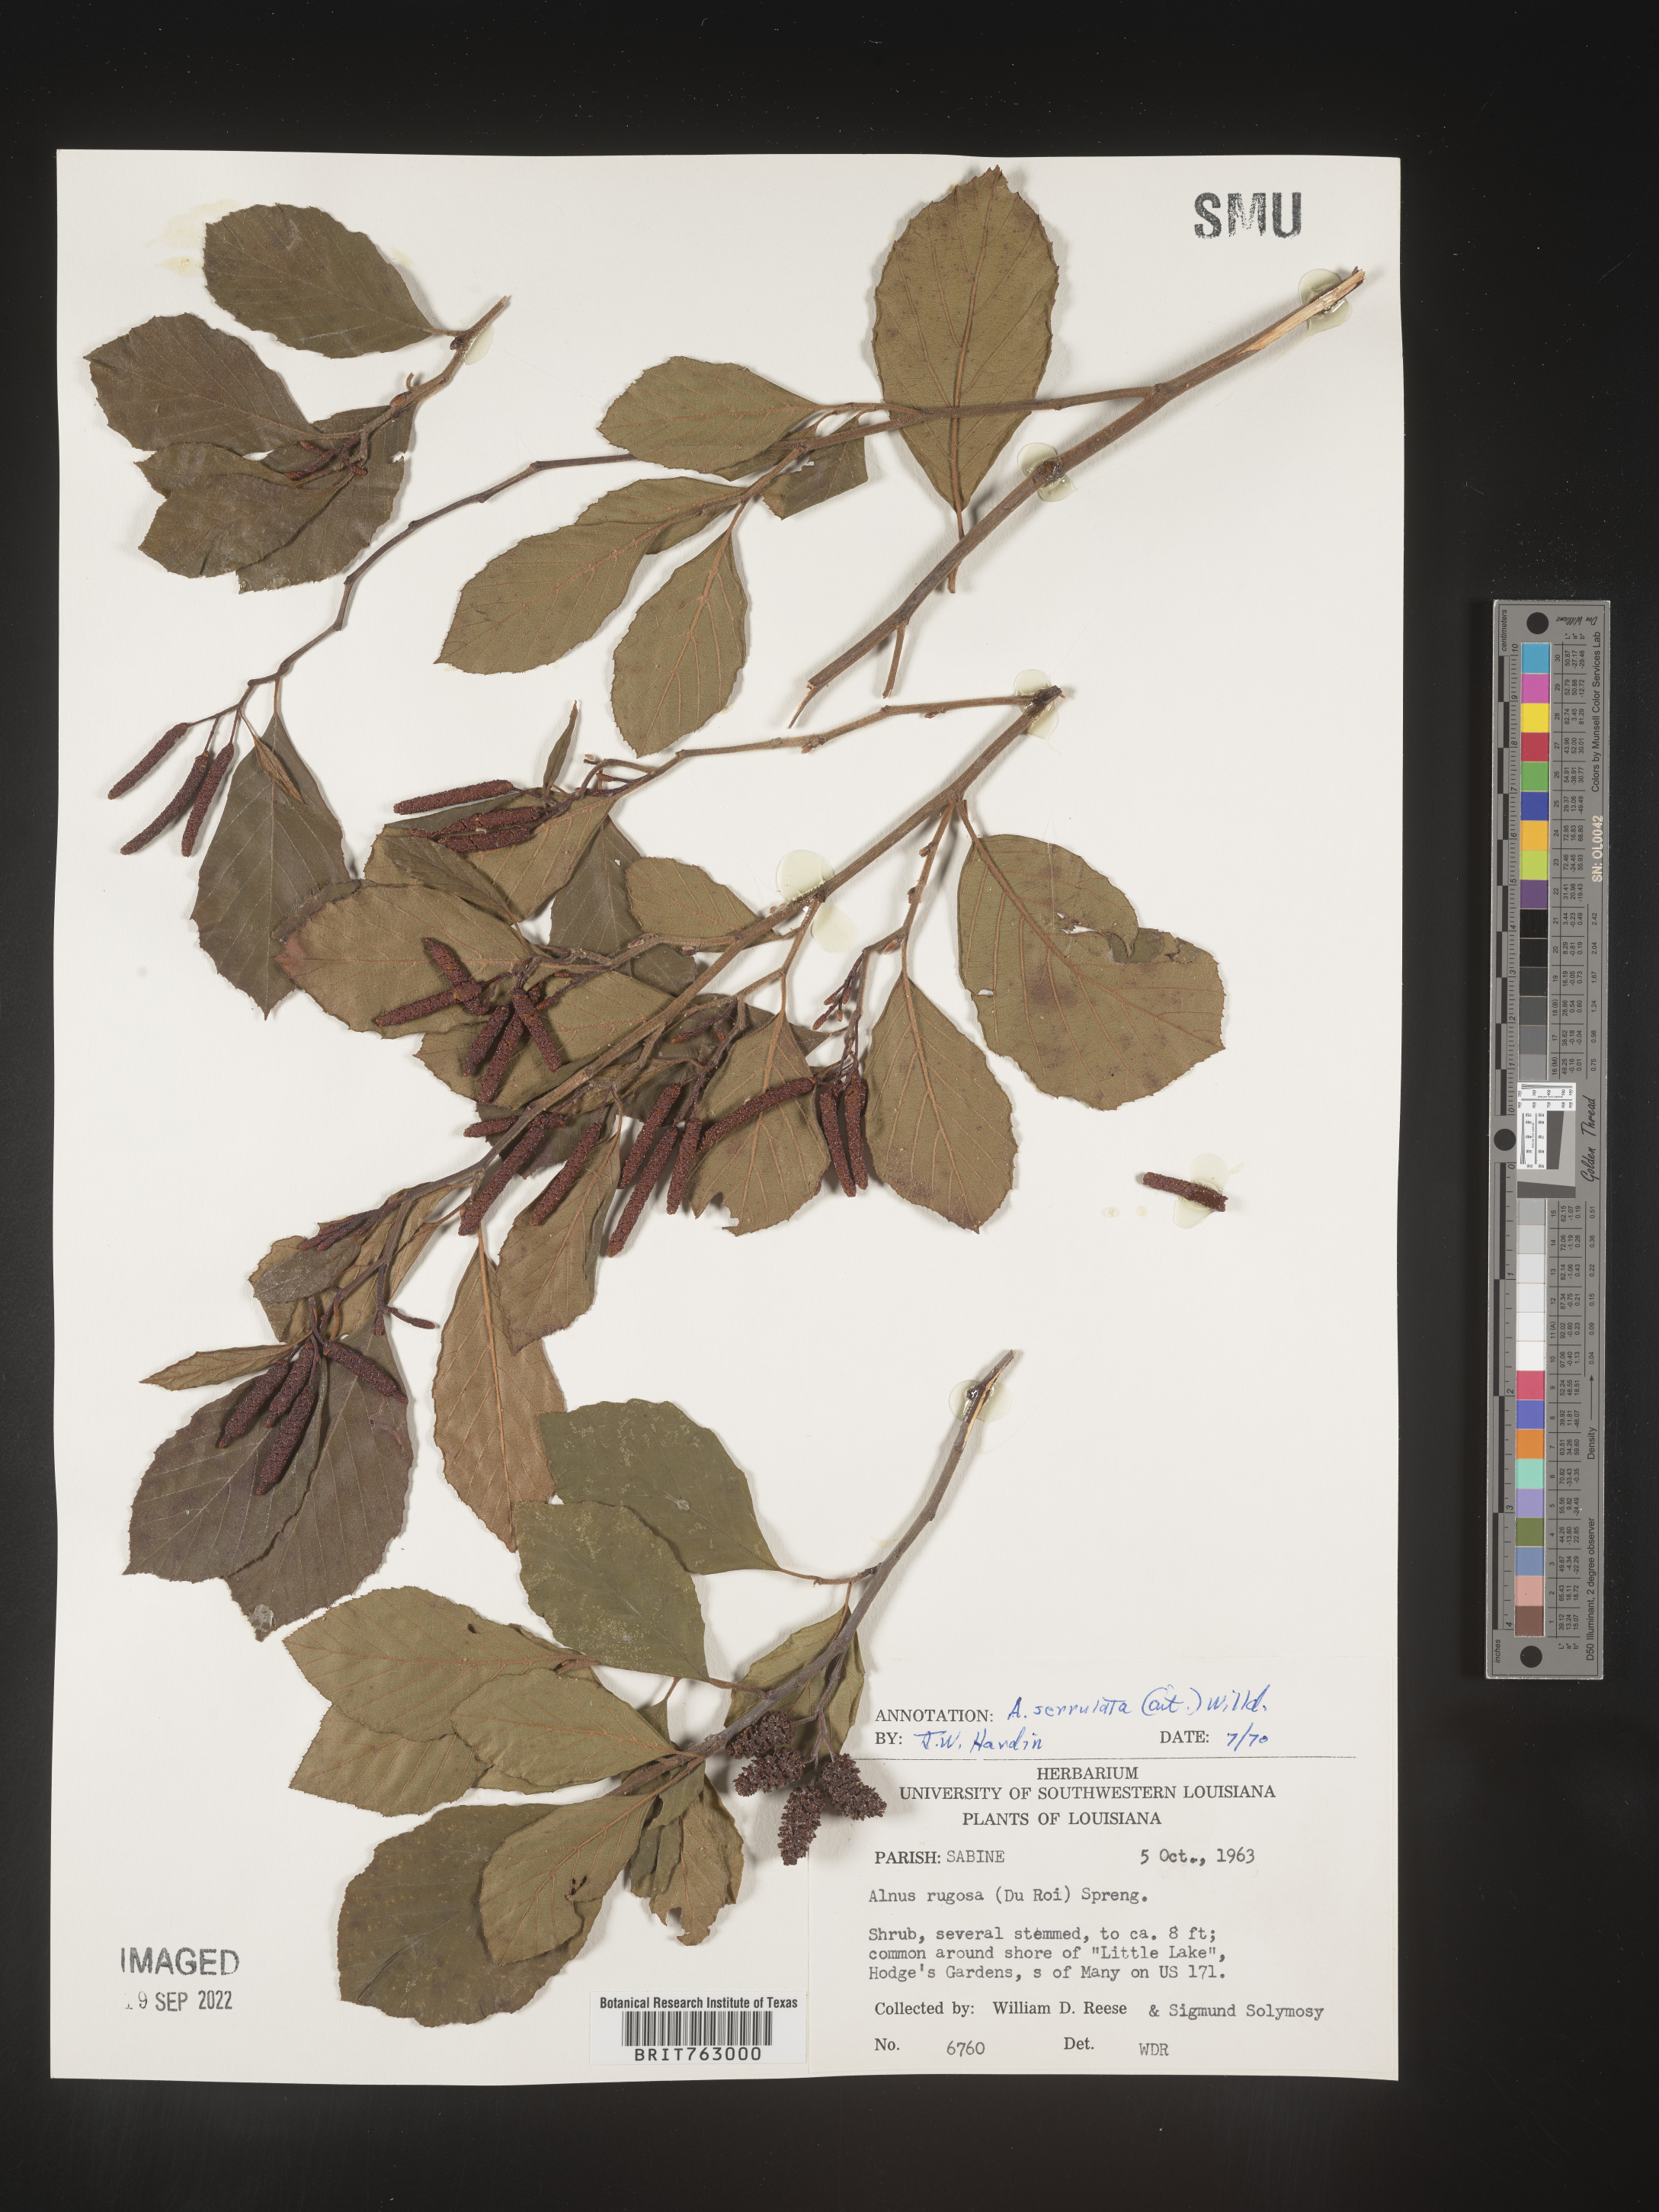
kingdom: Plantae
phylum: Tracheophyta
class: Magnoliopsida
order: Fagales
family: Betulaceae
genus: Alnus
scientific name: Alnus serrulata
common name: Hazel alder
